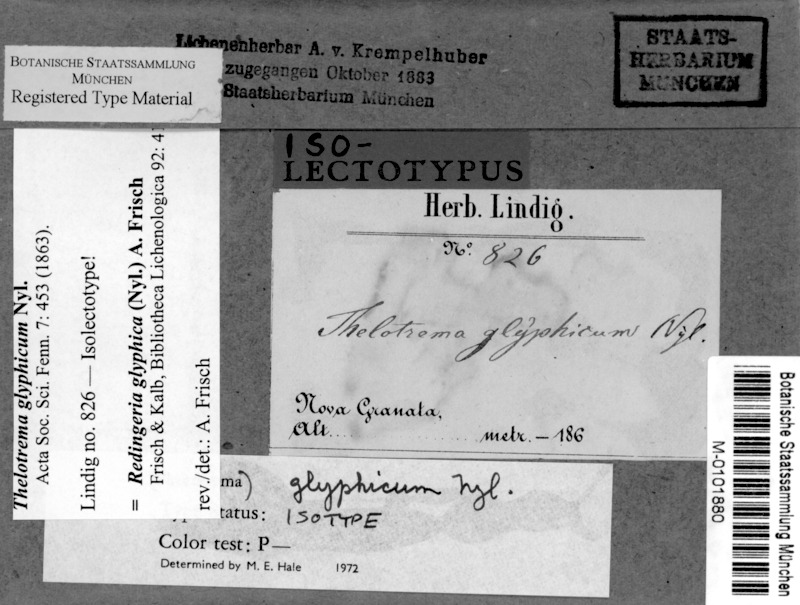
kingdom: Fungi
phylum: Ascomycota
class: Lecanoromycetes
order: Ostropales
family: Graphidaceae
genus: Redingeria
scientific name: Redingeria glyphica
